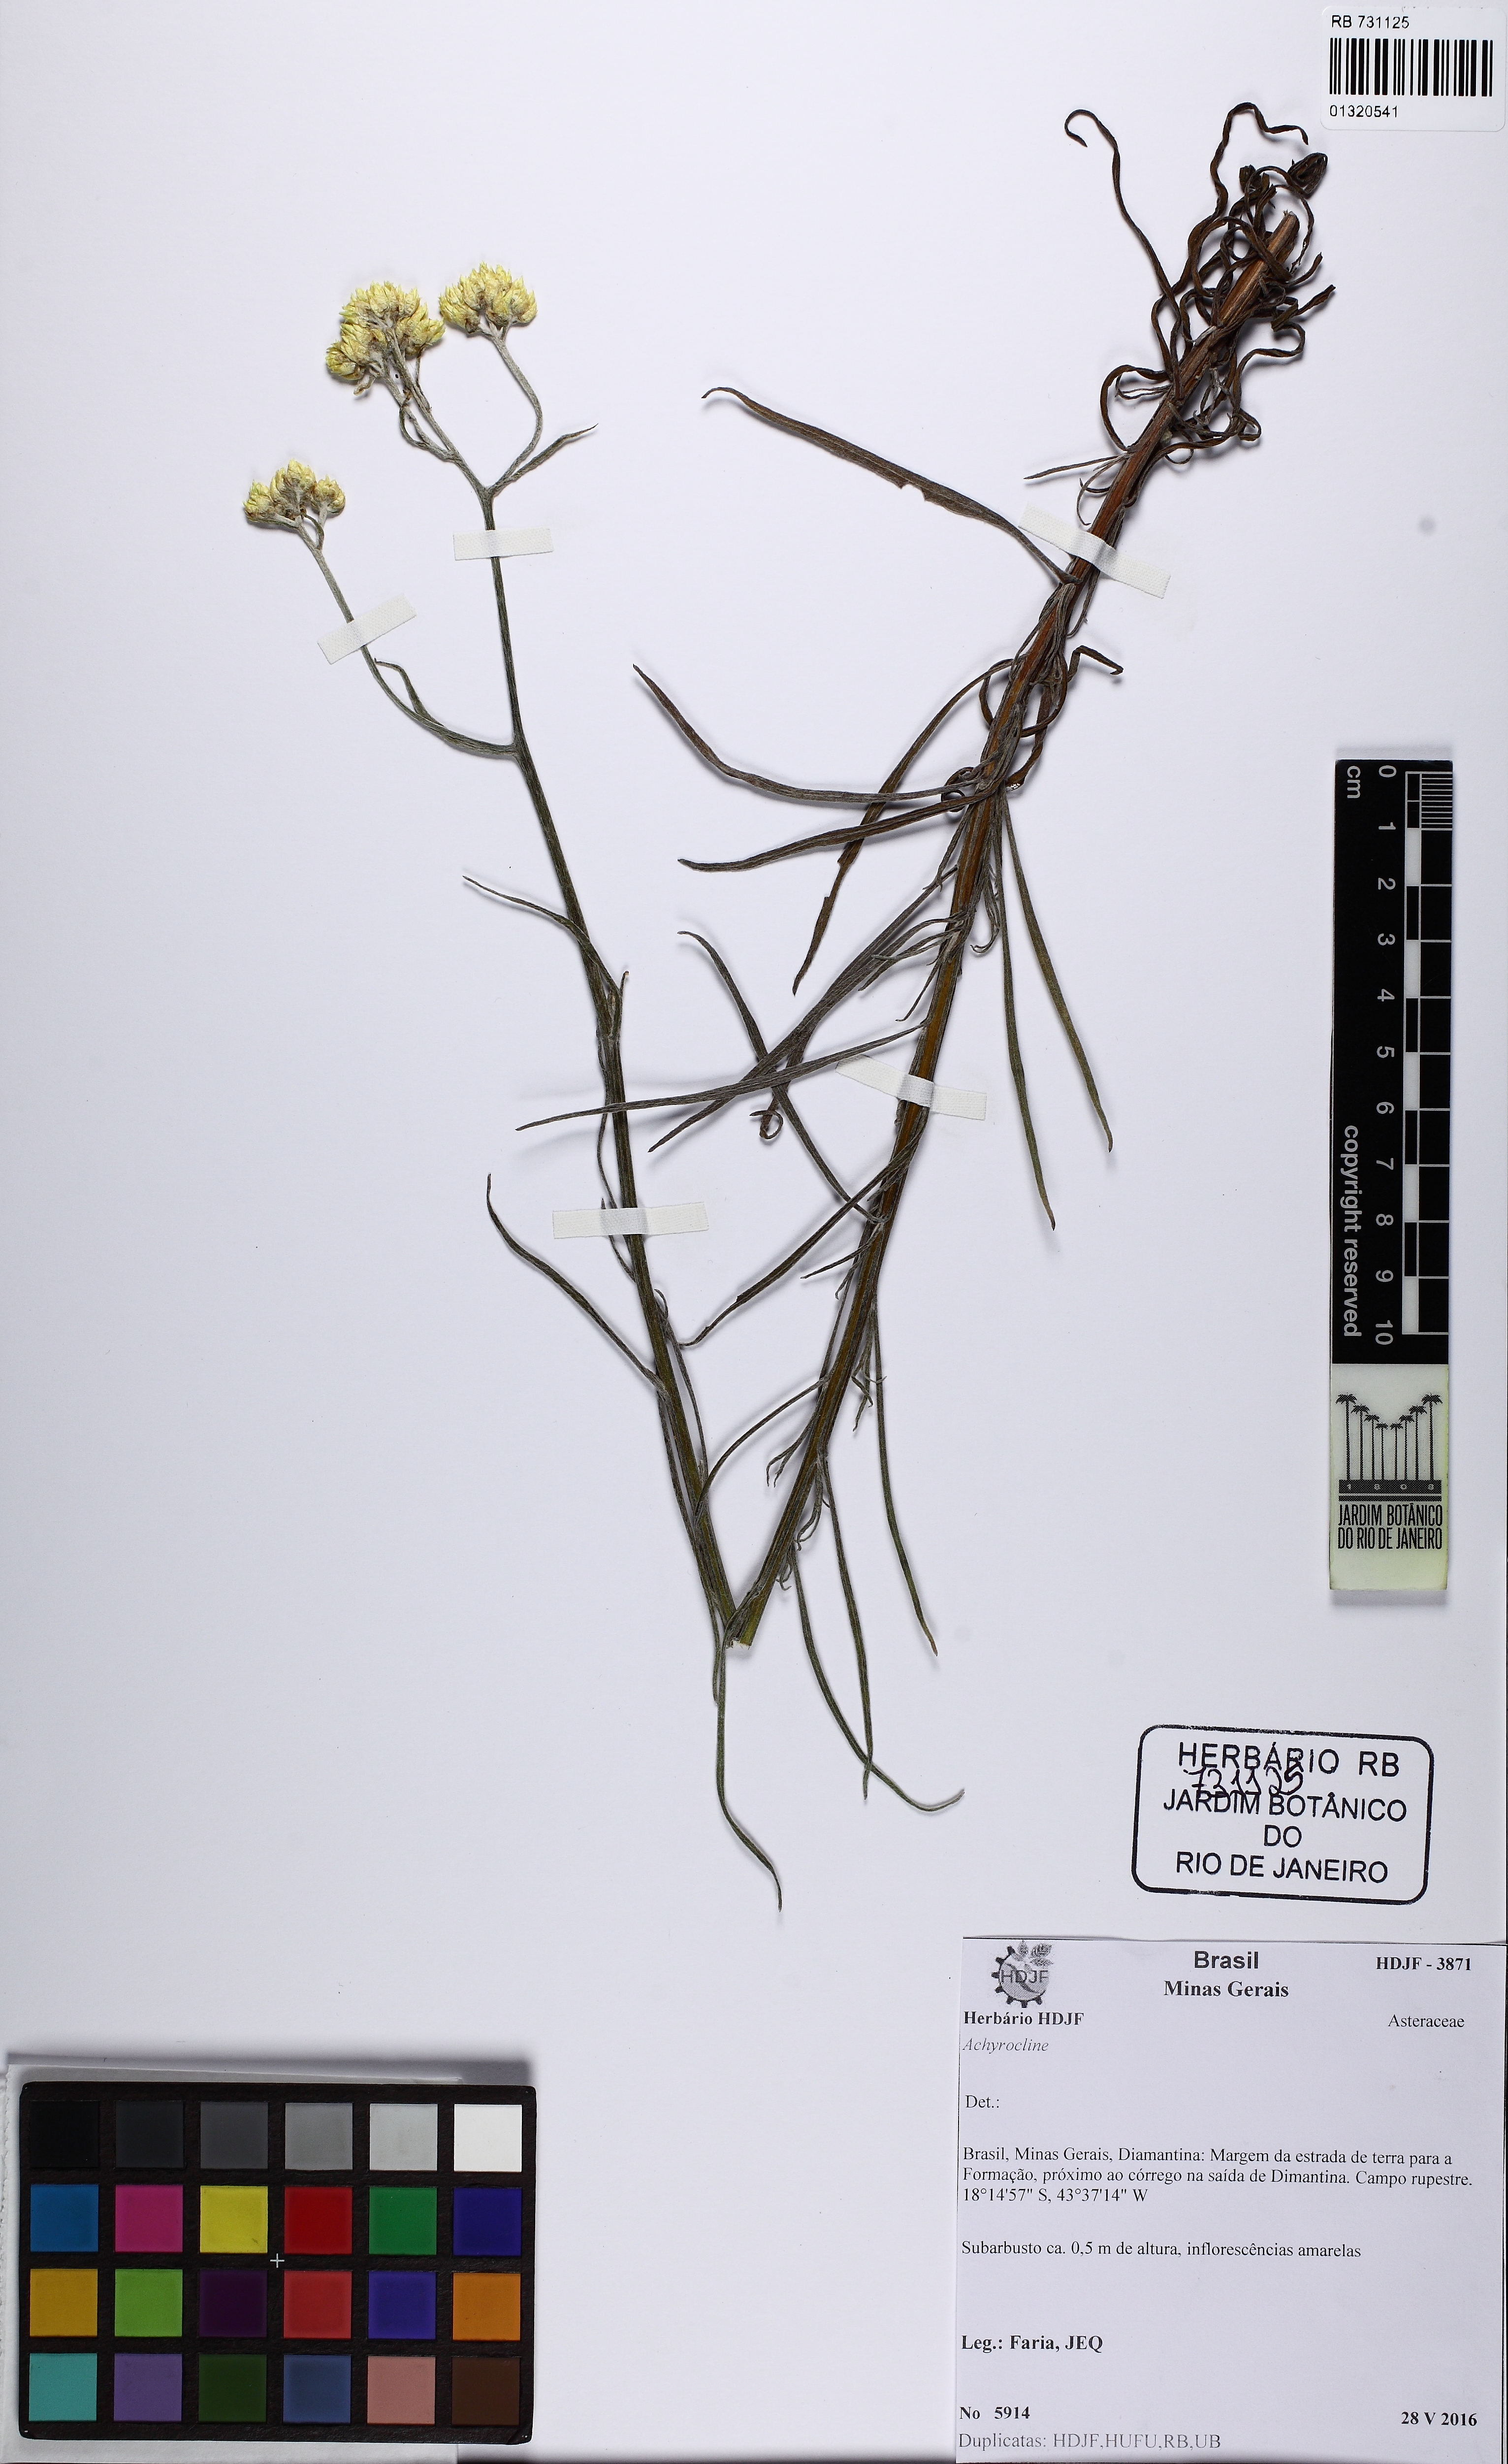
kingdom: Plantae
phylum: Tracheophyta
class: Magnoliopsida
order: Asterales
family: Asteraceae
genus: Achyrocline
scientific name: Achyrocline
